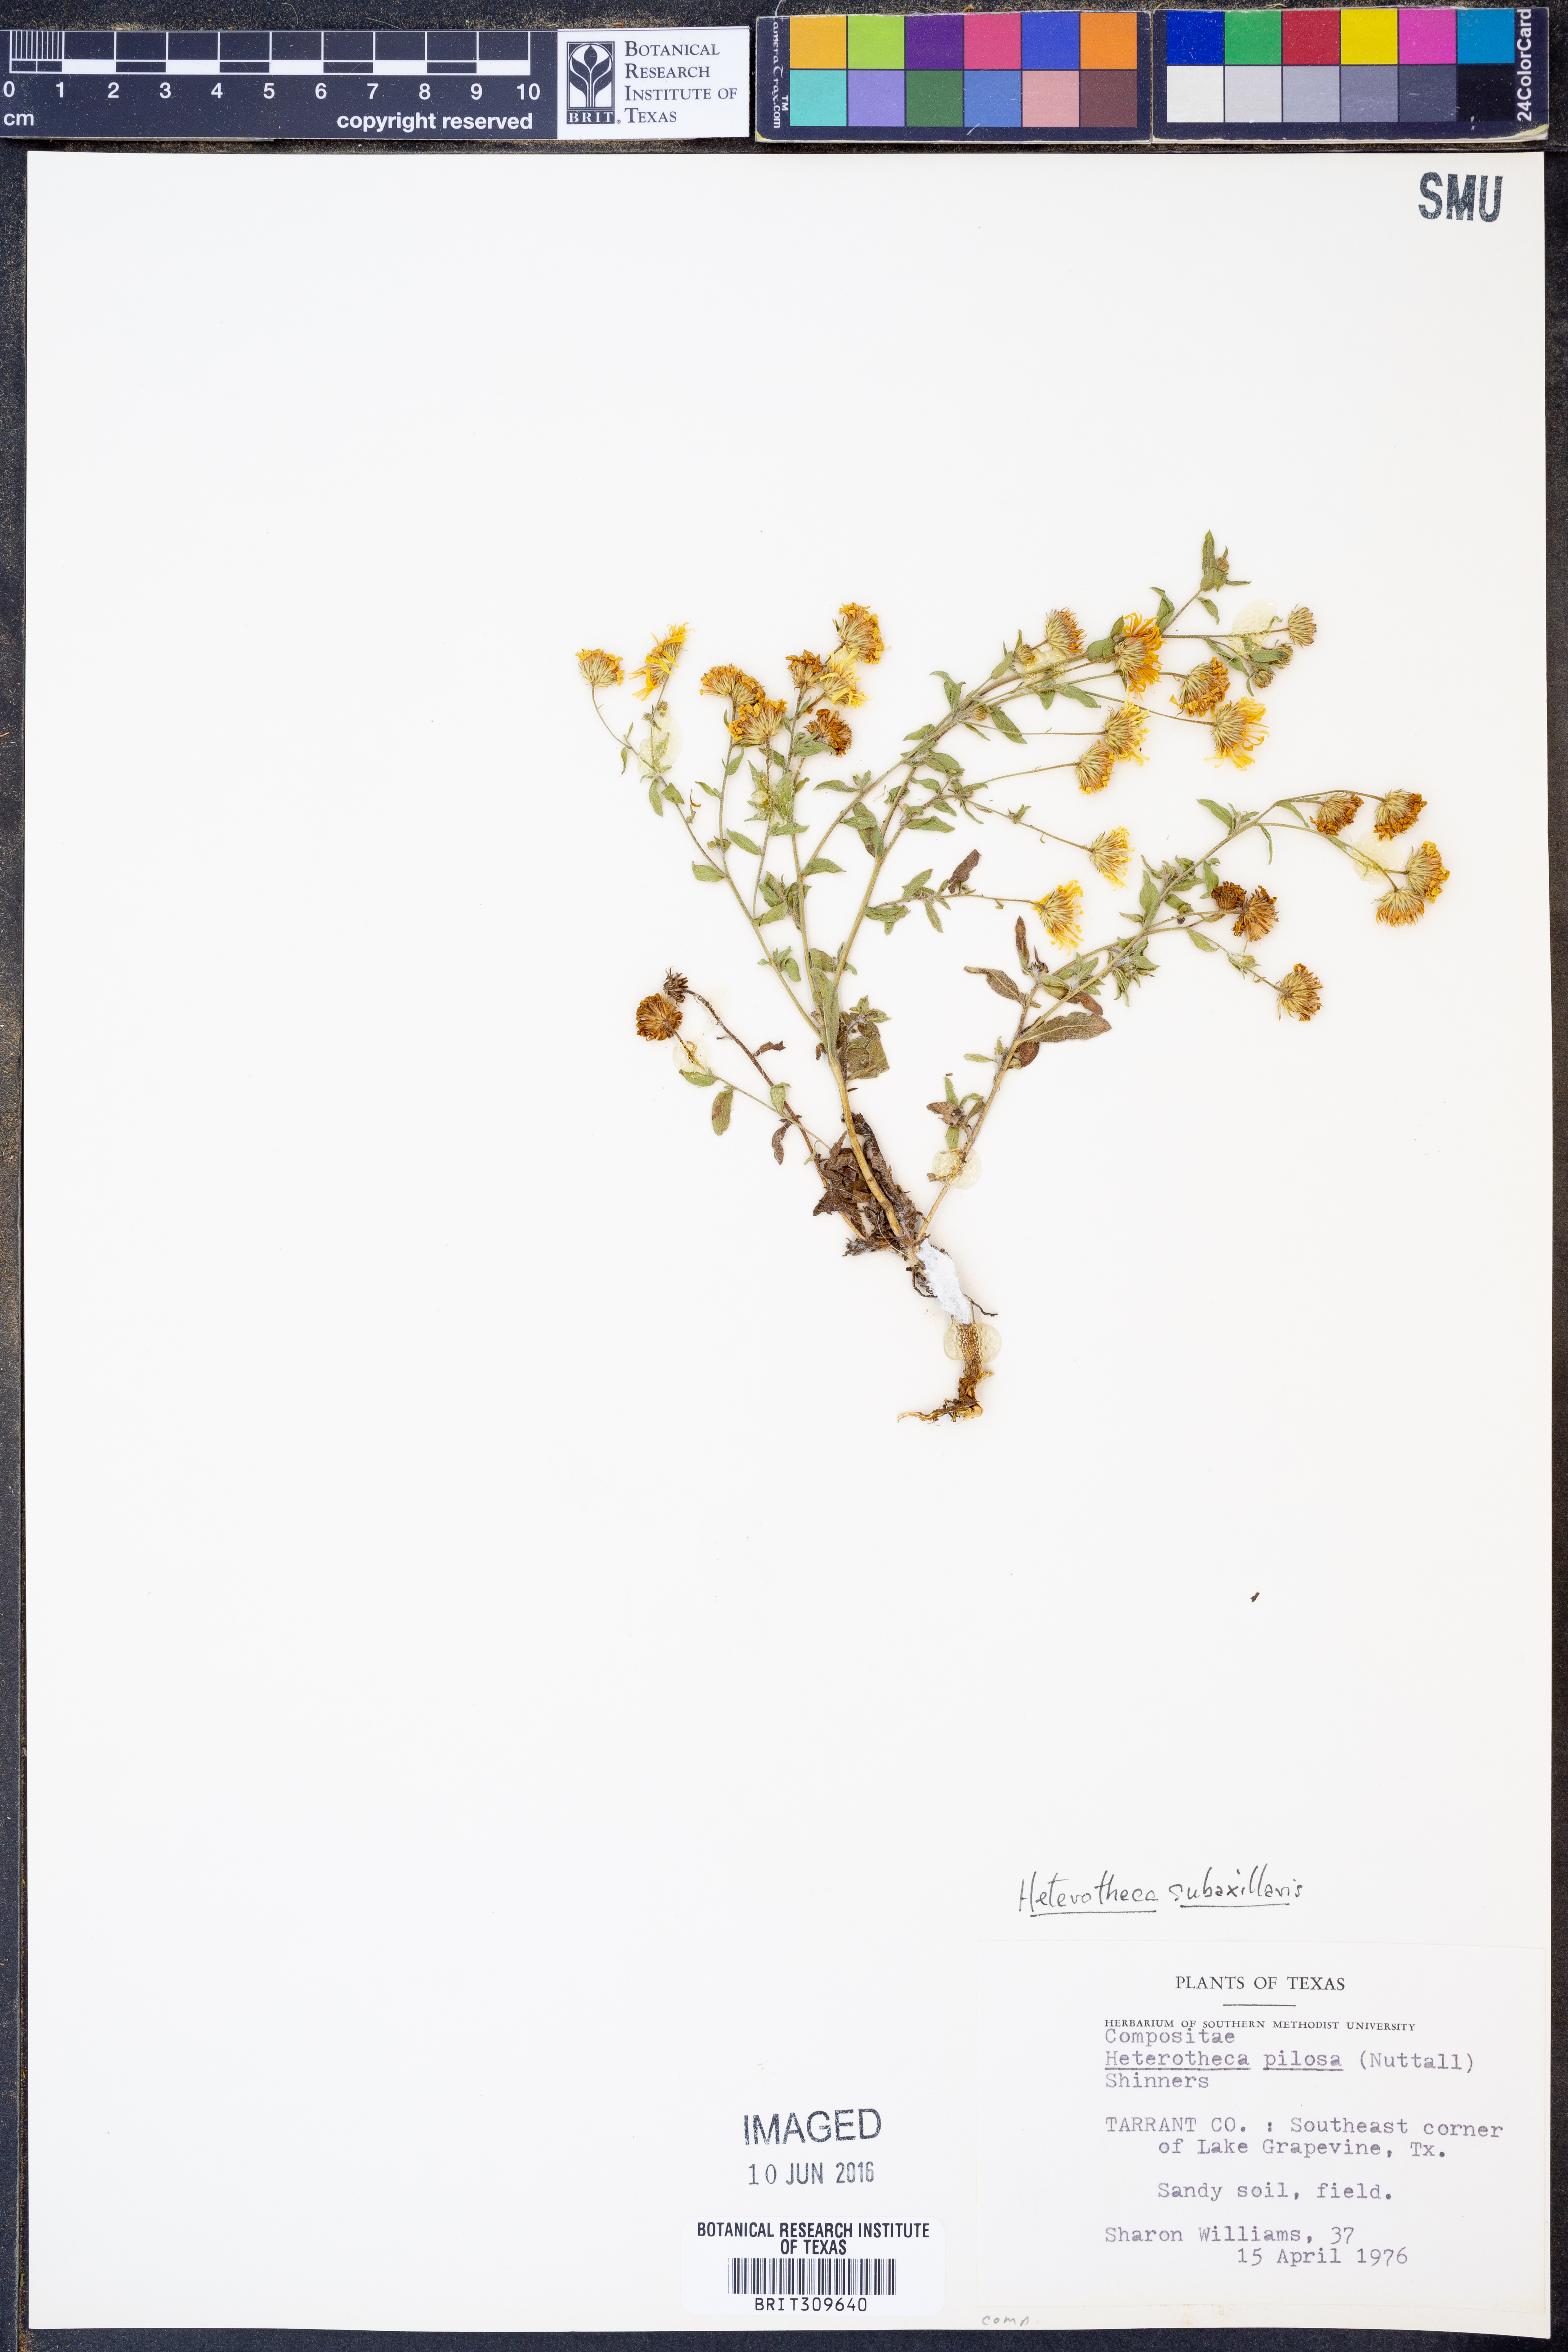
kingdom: Plantae
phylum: Tracheophyta
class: Magnoliopsida
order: Asterales
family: Asteraceae
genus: Heterotheca
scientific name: Heterotheca subaxillaris
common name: Camphorweed
